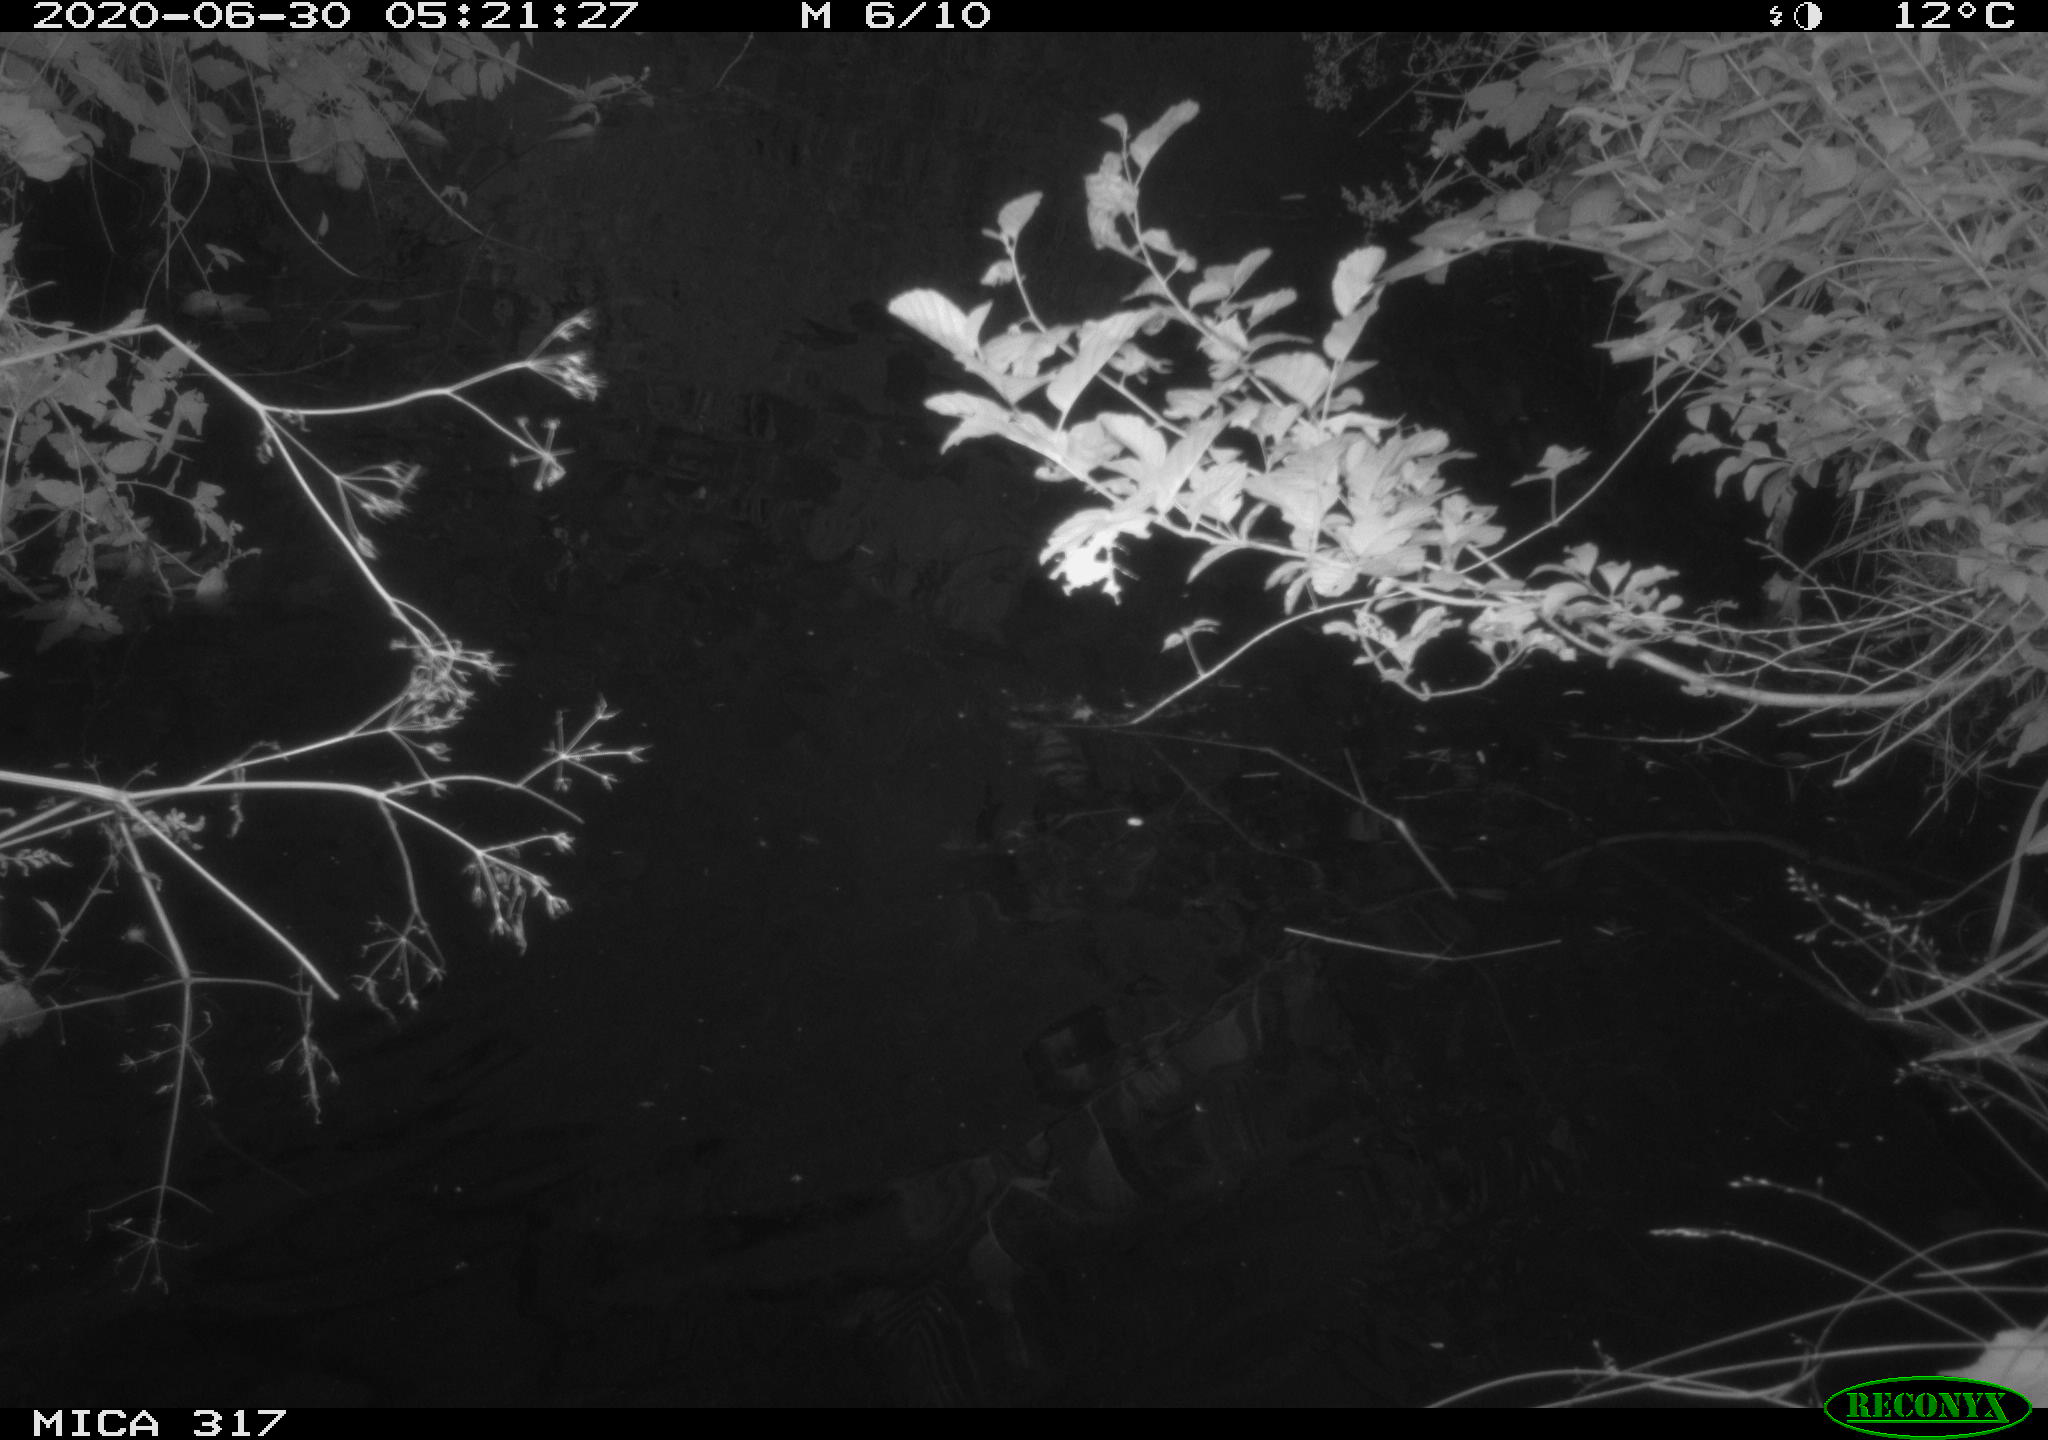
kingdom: Animalia
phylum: Chordata
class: Aves
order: Gruiformes
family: Rallidae
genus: Fulica
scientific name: Fulica atra
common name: Eurasian coot
